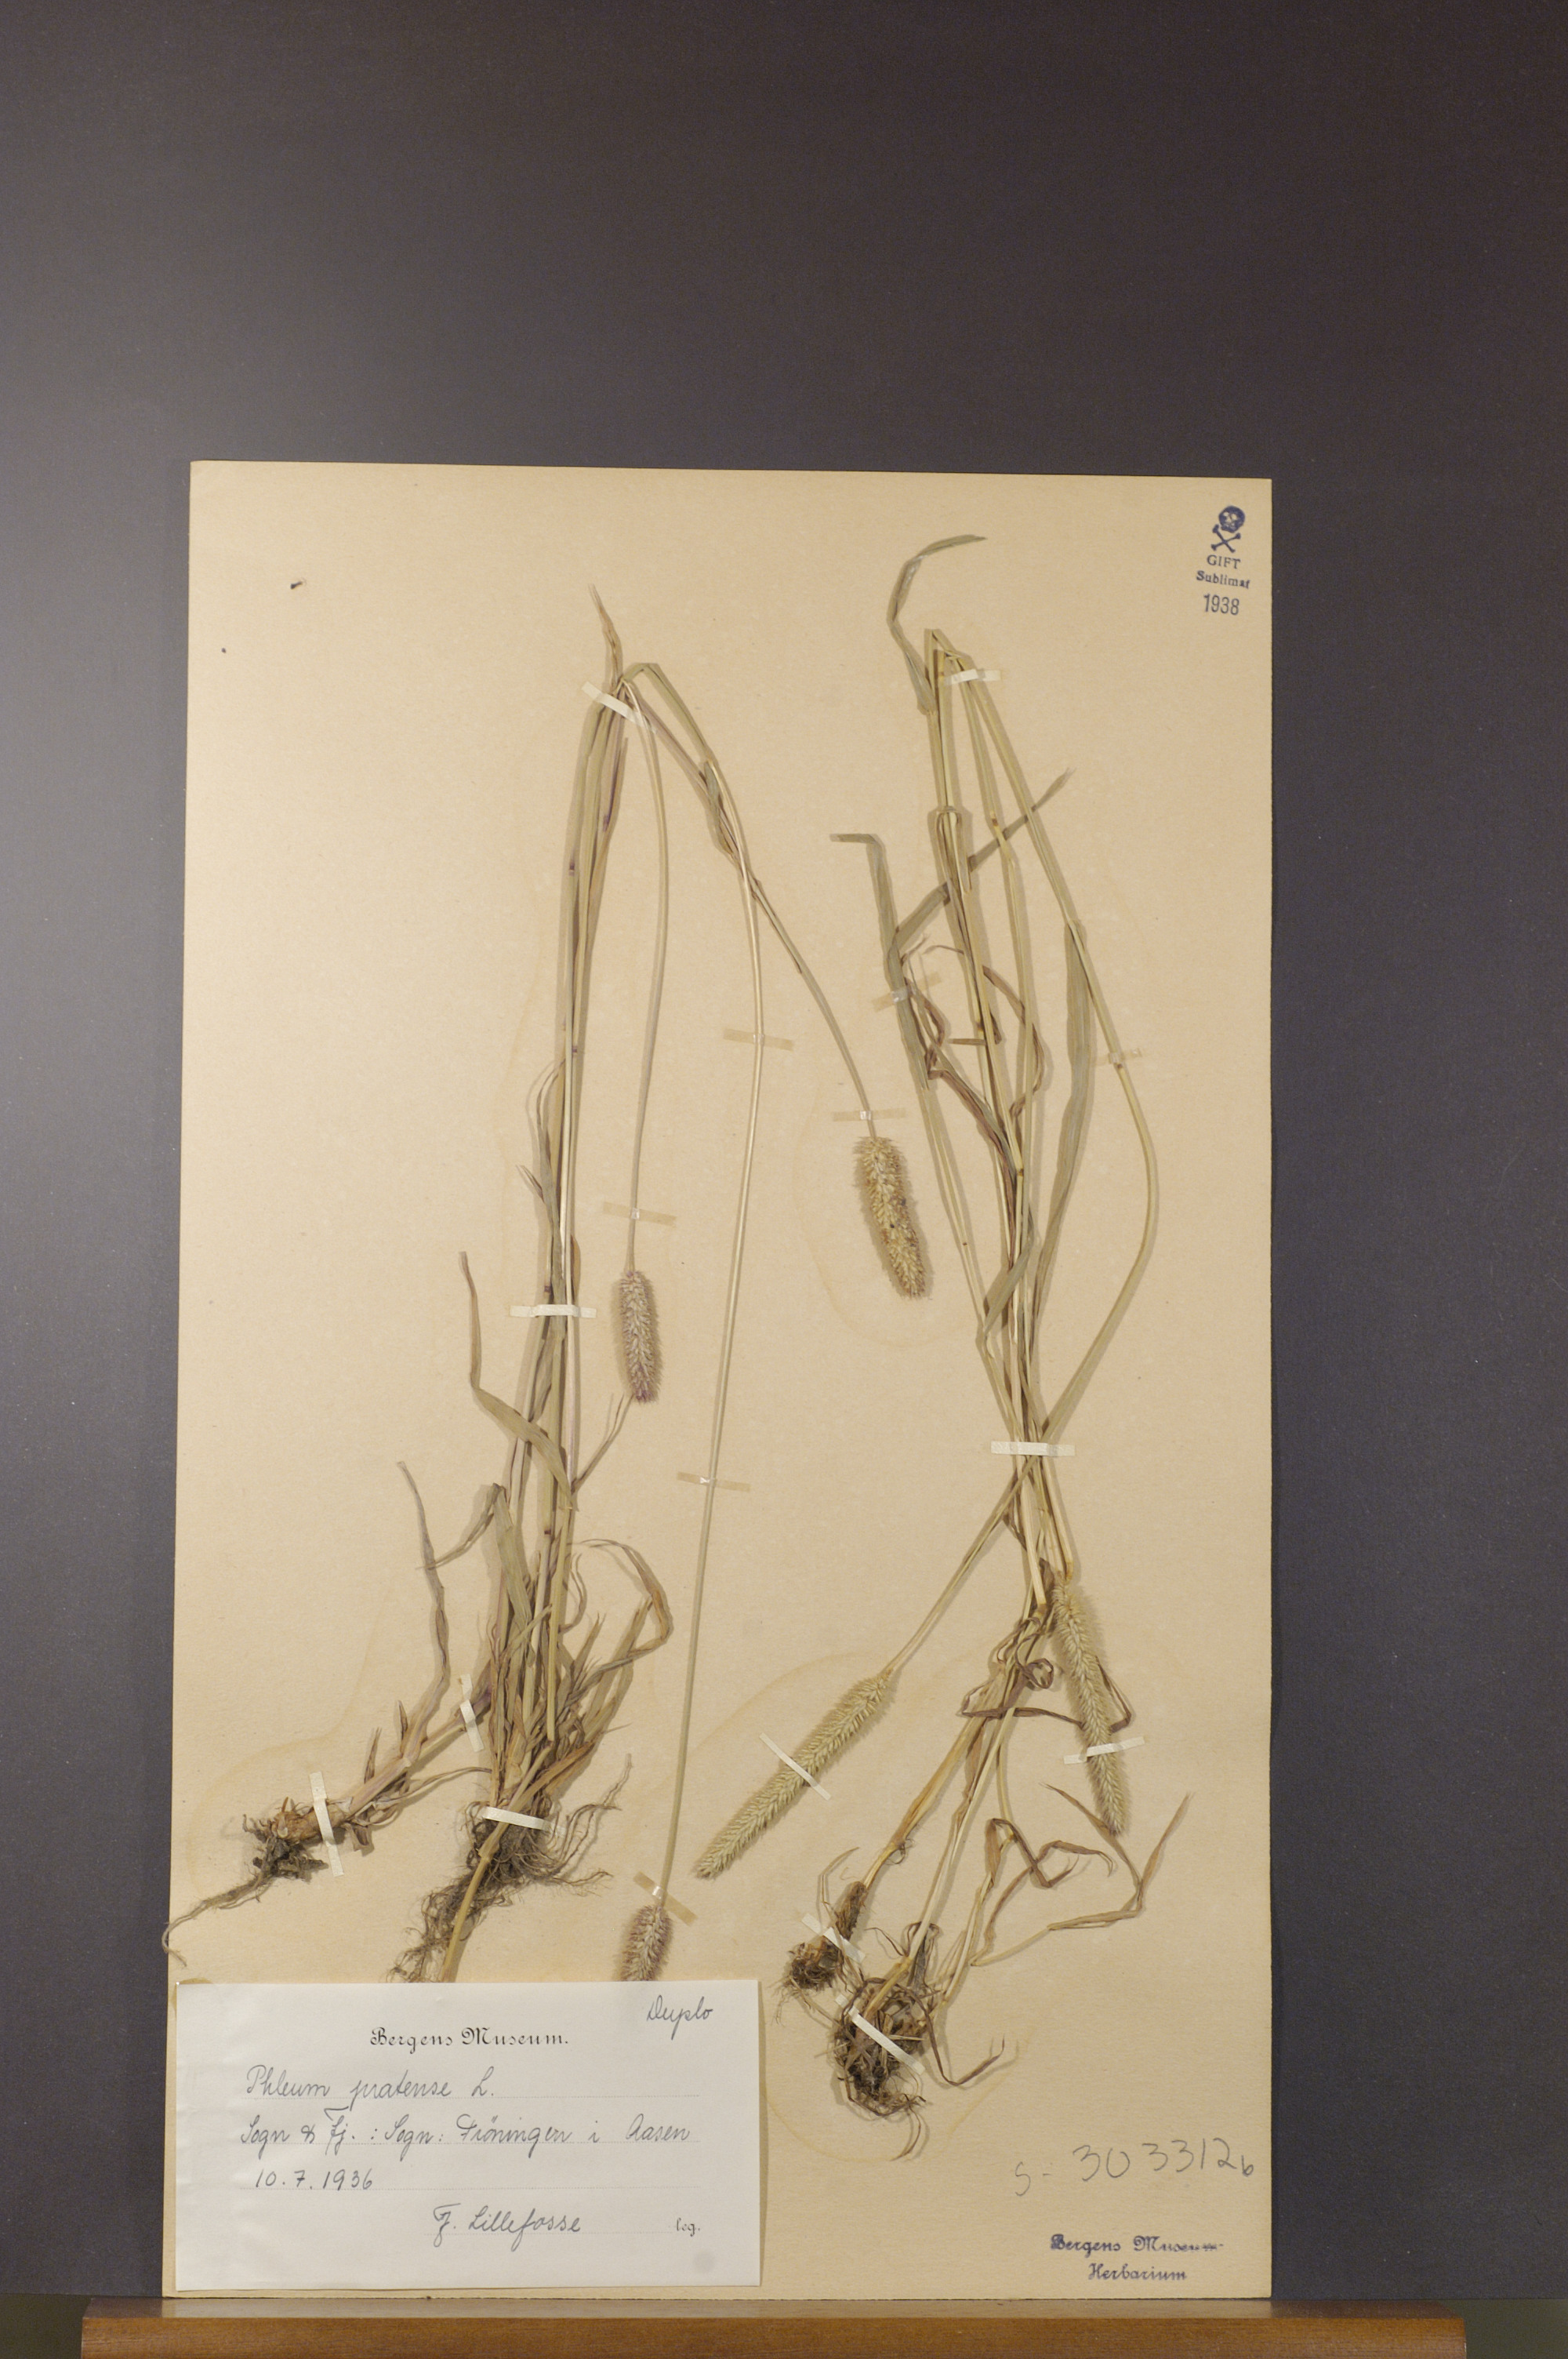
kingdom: Plantae
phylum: Tracheophyta
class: Liliopsida
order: Poales
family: Poaceae
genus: Phleum
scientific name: Phleum pratense
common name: Timothy grass
